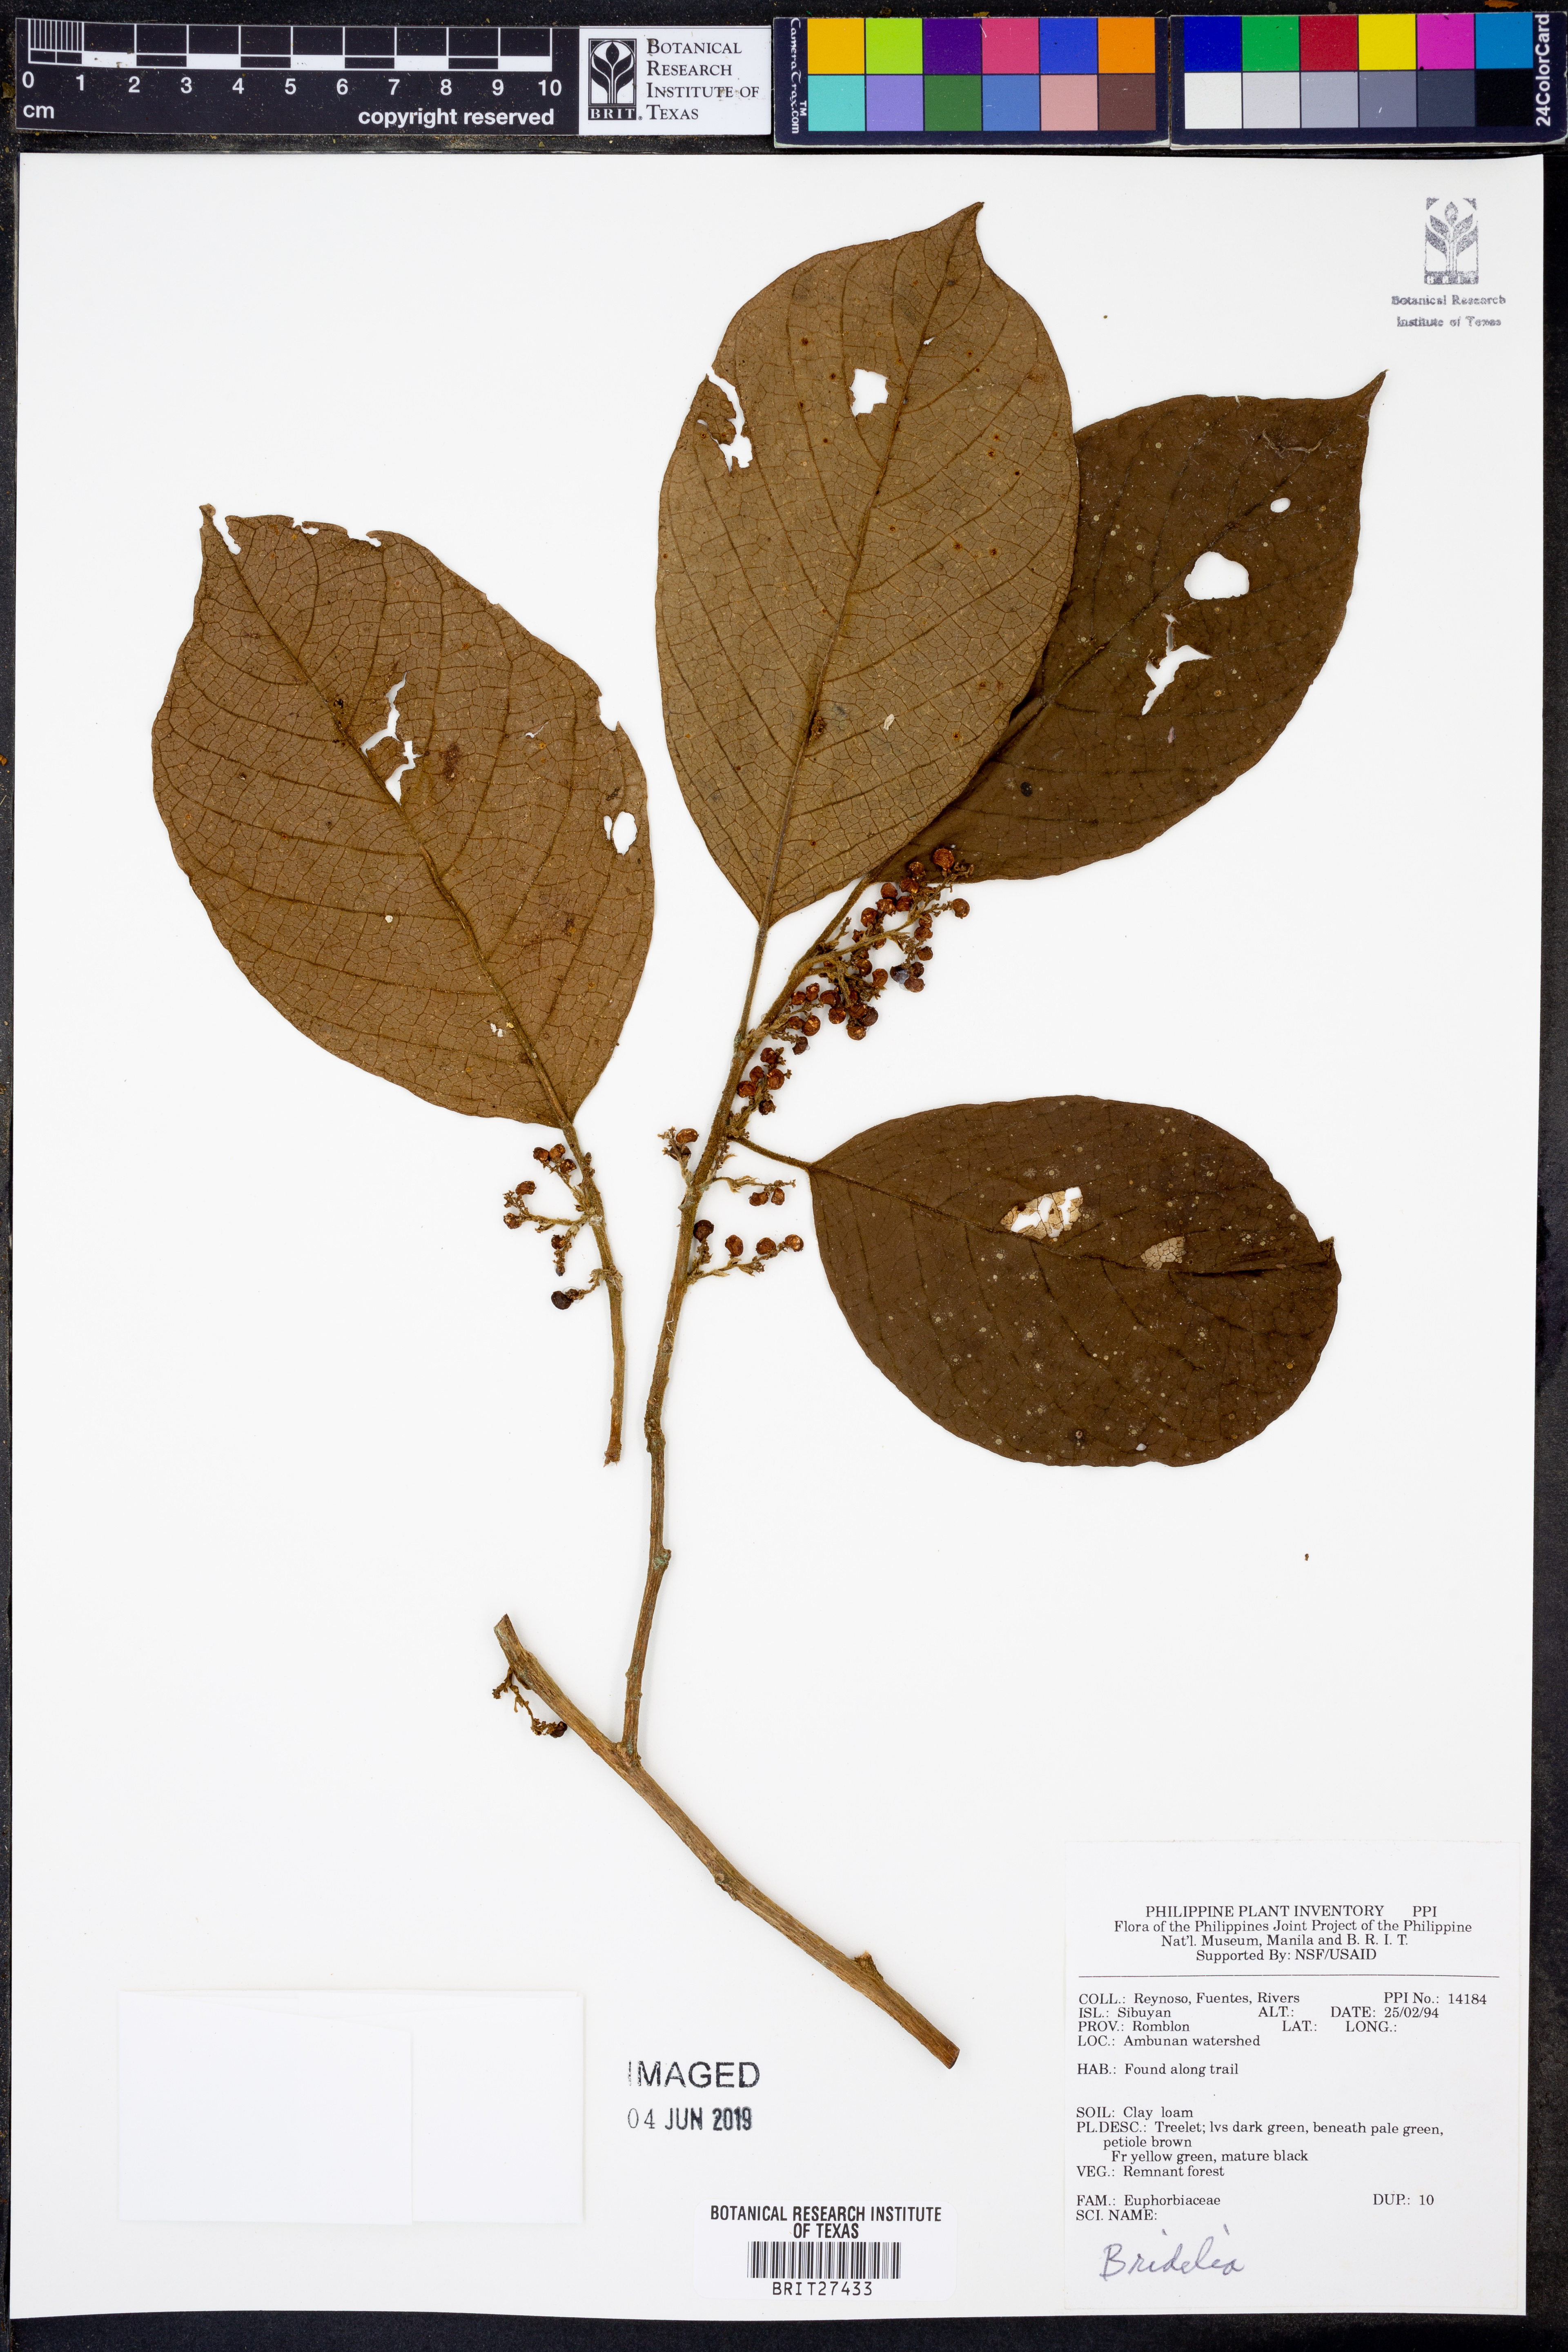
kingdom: Plantae
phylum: Tracheophyta
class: Magnoliopsida
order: Malpighiales
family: Phyllanthaceae
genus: Bridelia
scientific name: Bridelia
